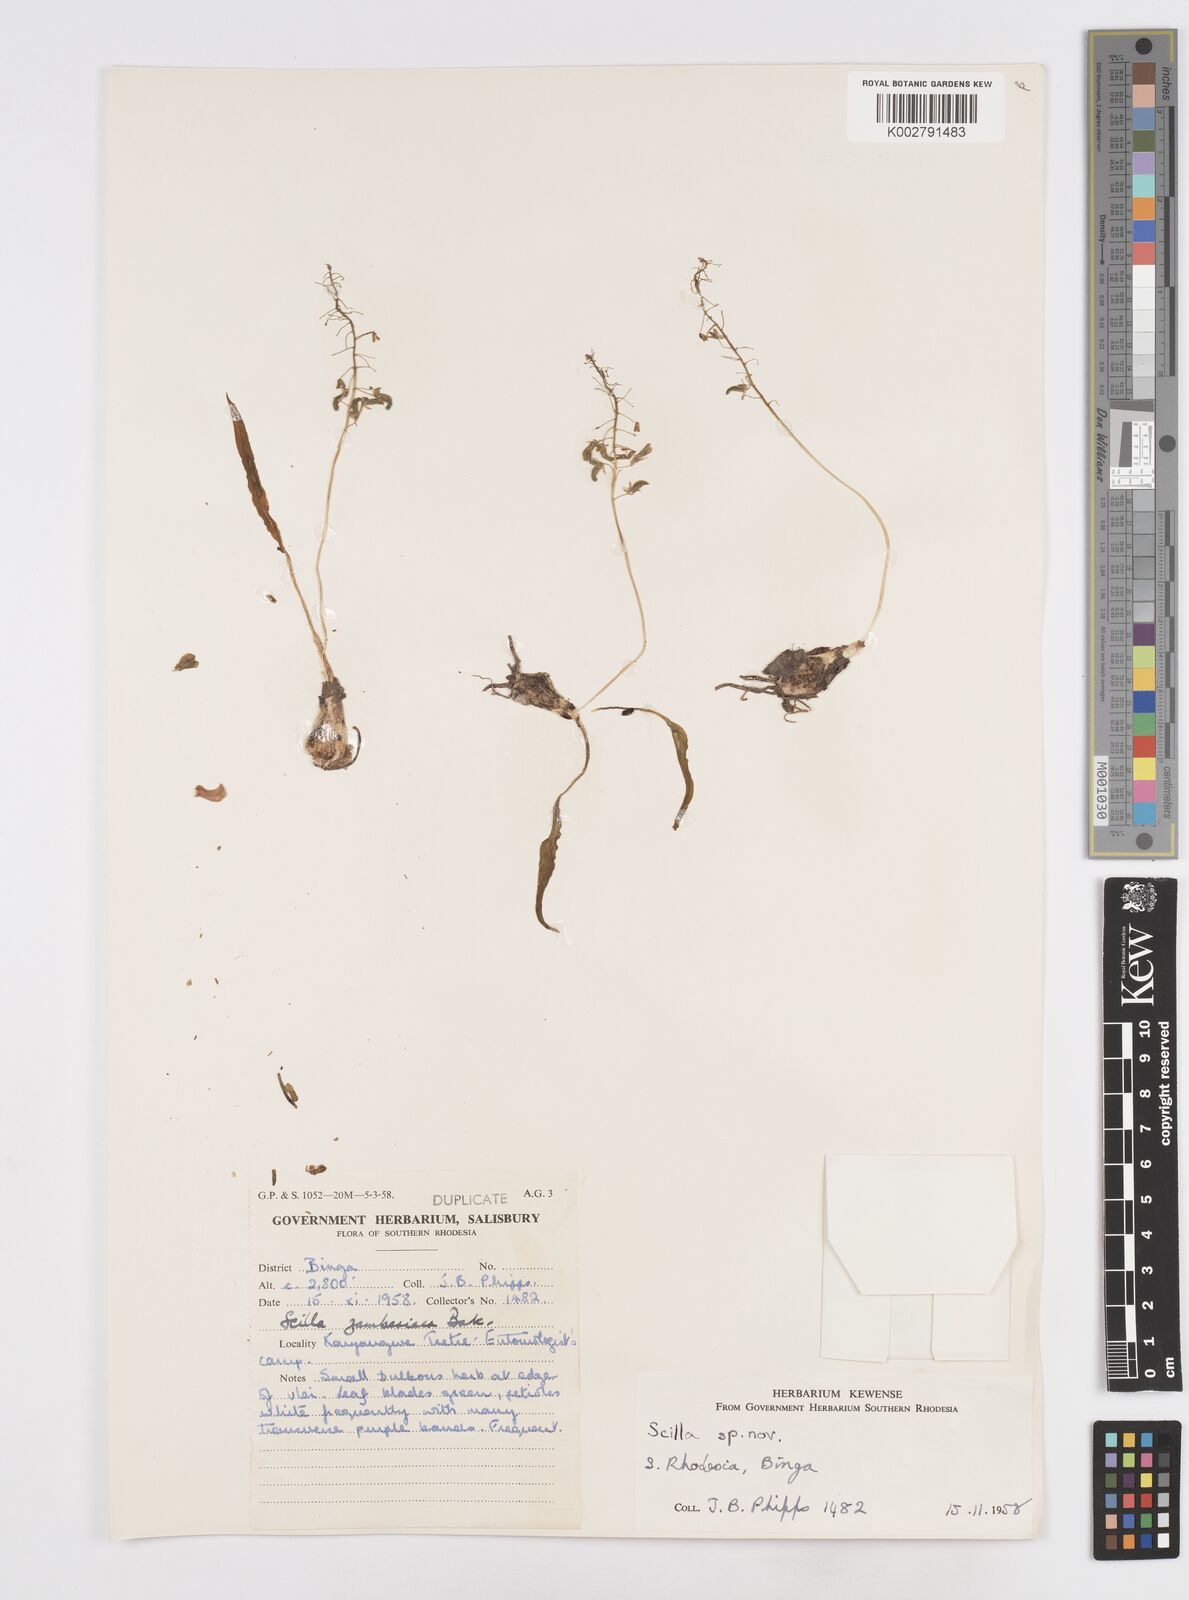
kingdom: Plantae
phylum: Tracheophyta
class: Liliopsida
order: Asparagales
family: Asparagaceae
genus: Scilla
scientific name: Scilla
